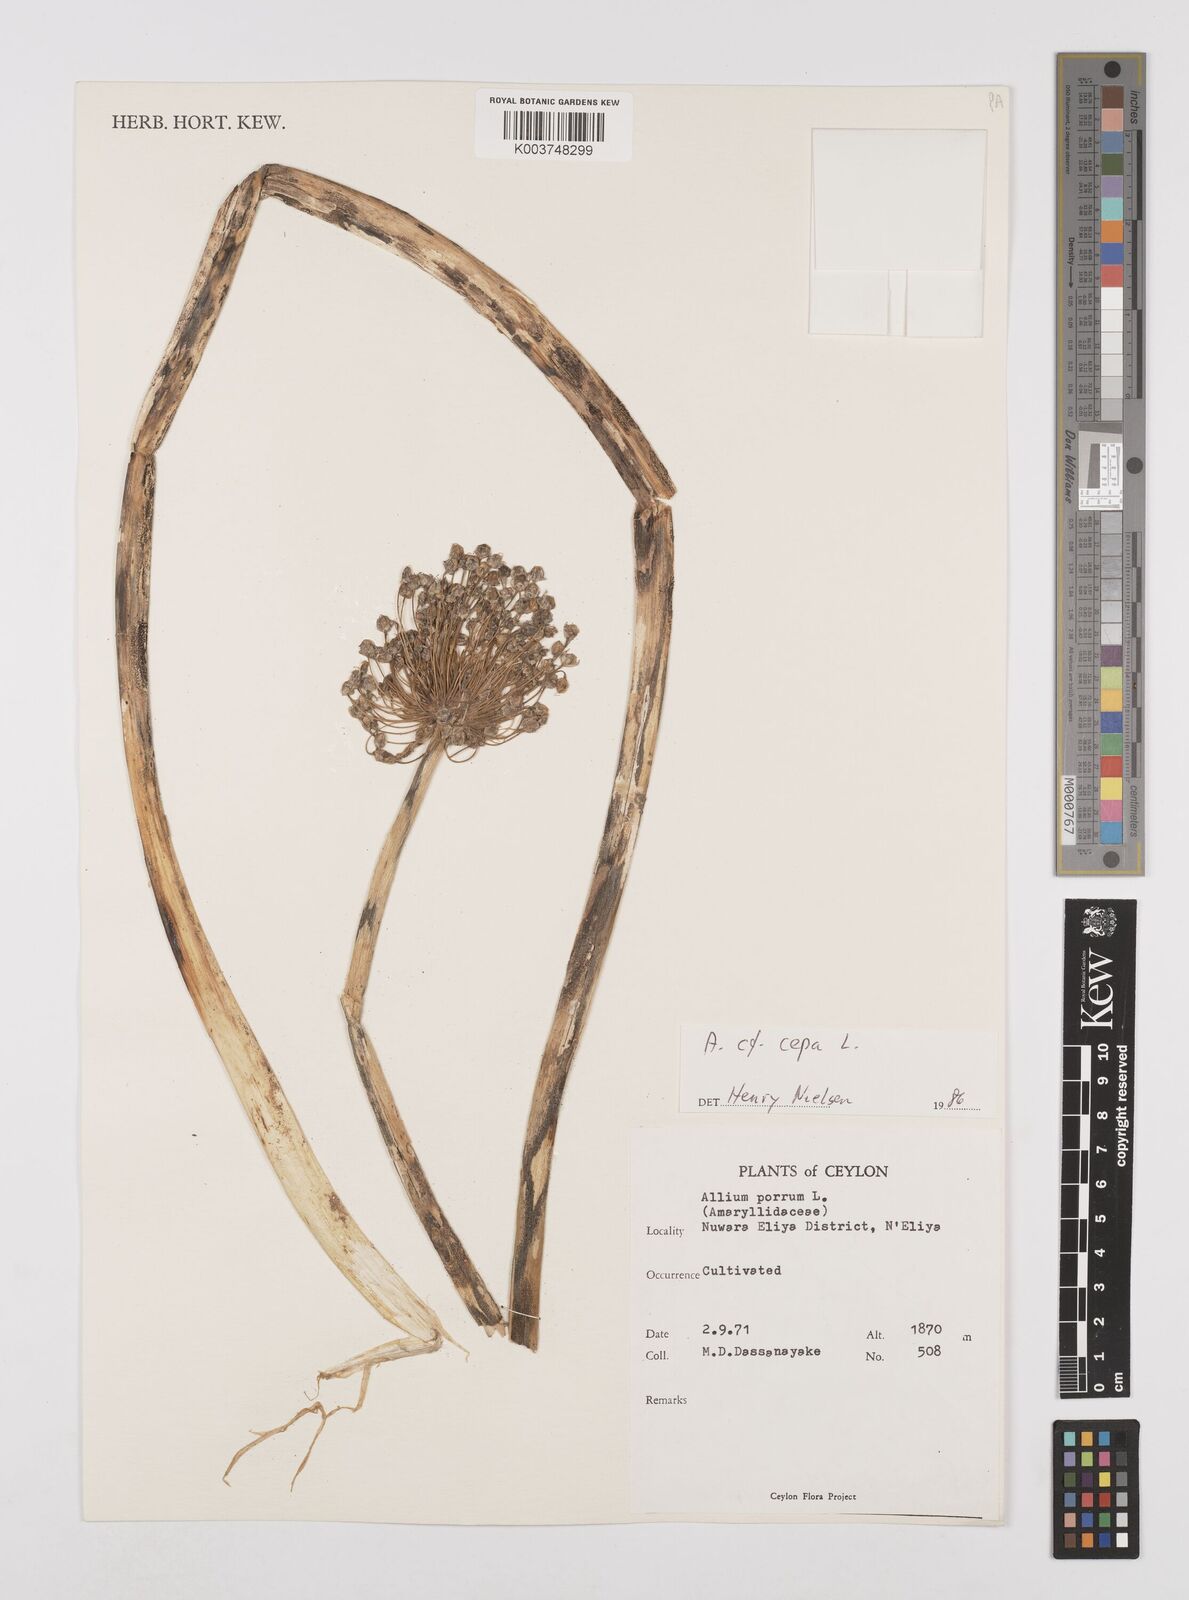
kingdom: Plantae
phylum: Tracheophyta
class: Liliopsida
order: Asparagales
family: Amaryllidaceae
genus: Allium
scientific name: Allium cepa
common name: Onion
